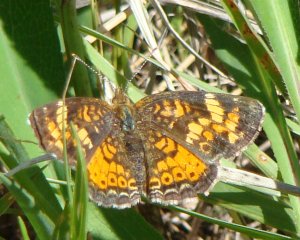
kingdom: Animalia
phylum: Arthropoda
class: Insecta
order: Lepidoptera
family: Nymphalidae
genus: Phyciodes
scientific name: Phyciodes tharos
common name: Pearl Crescent
